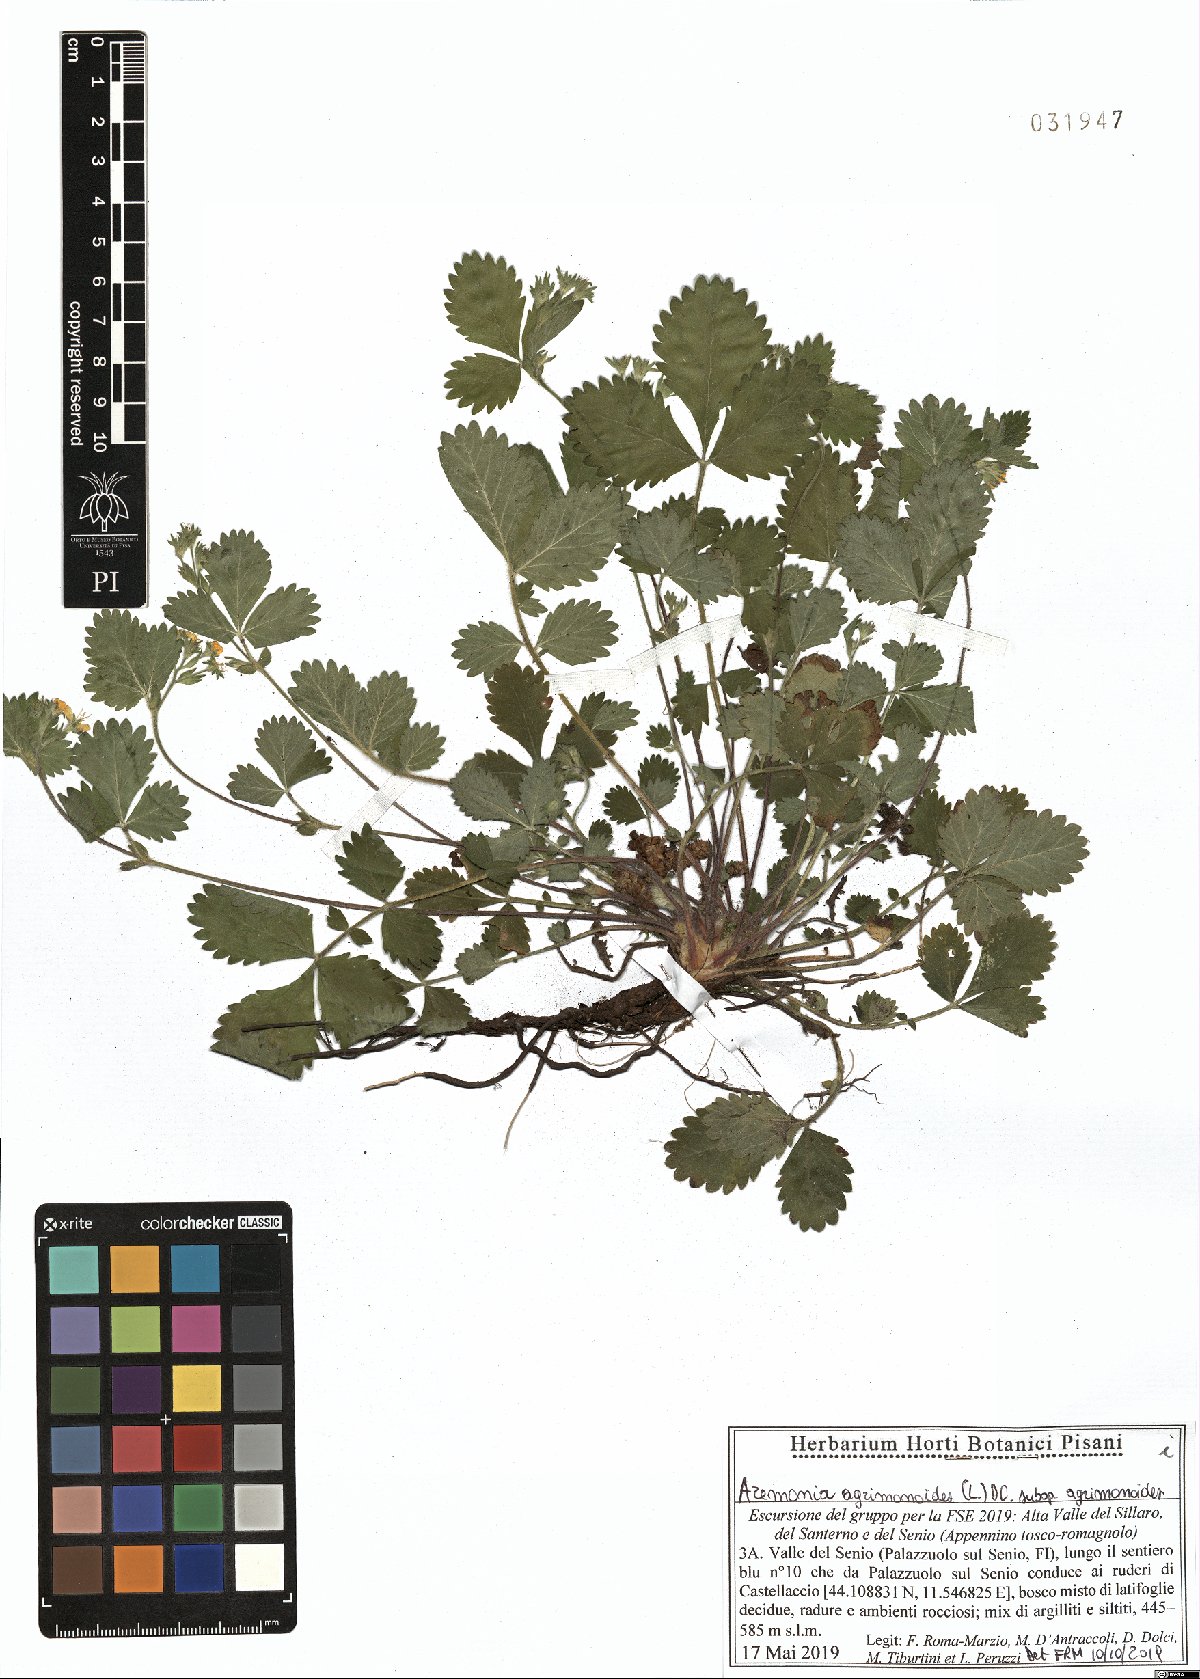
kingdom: Plantae
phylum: Tracheophyta
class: Magnoliopsida
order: Rosales
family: Rosaceae
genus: Aremonia
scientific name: Aremonia agrimonoides
